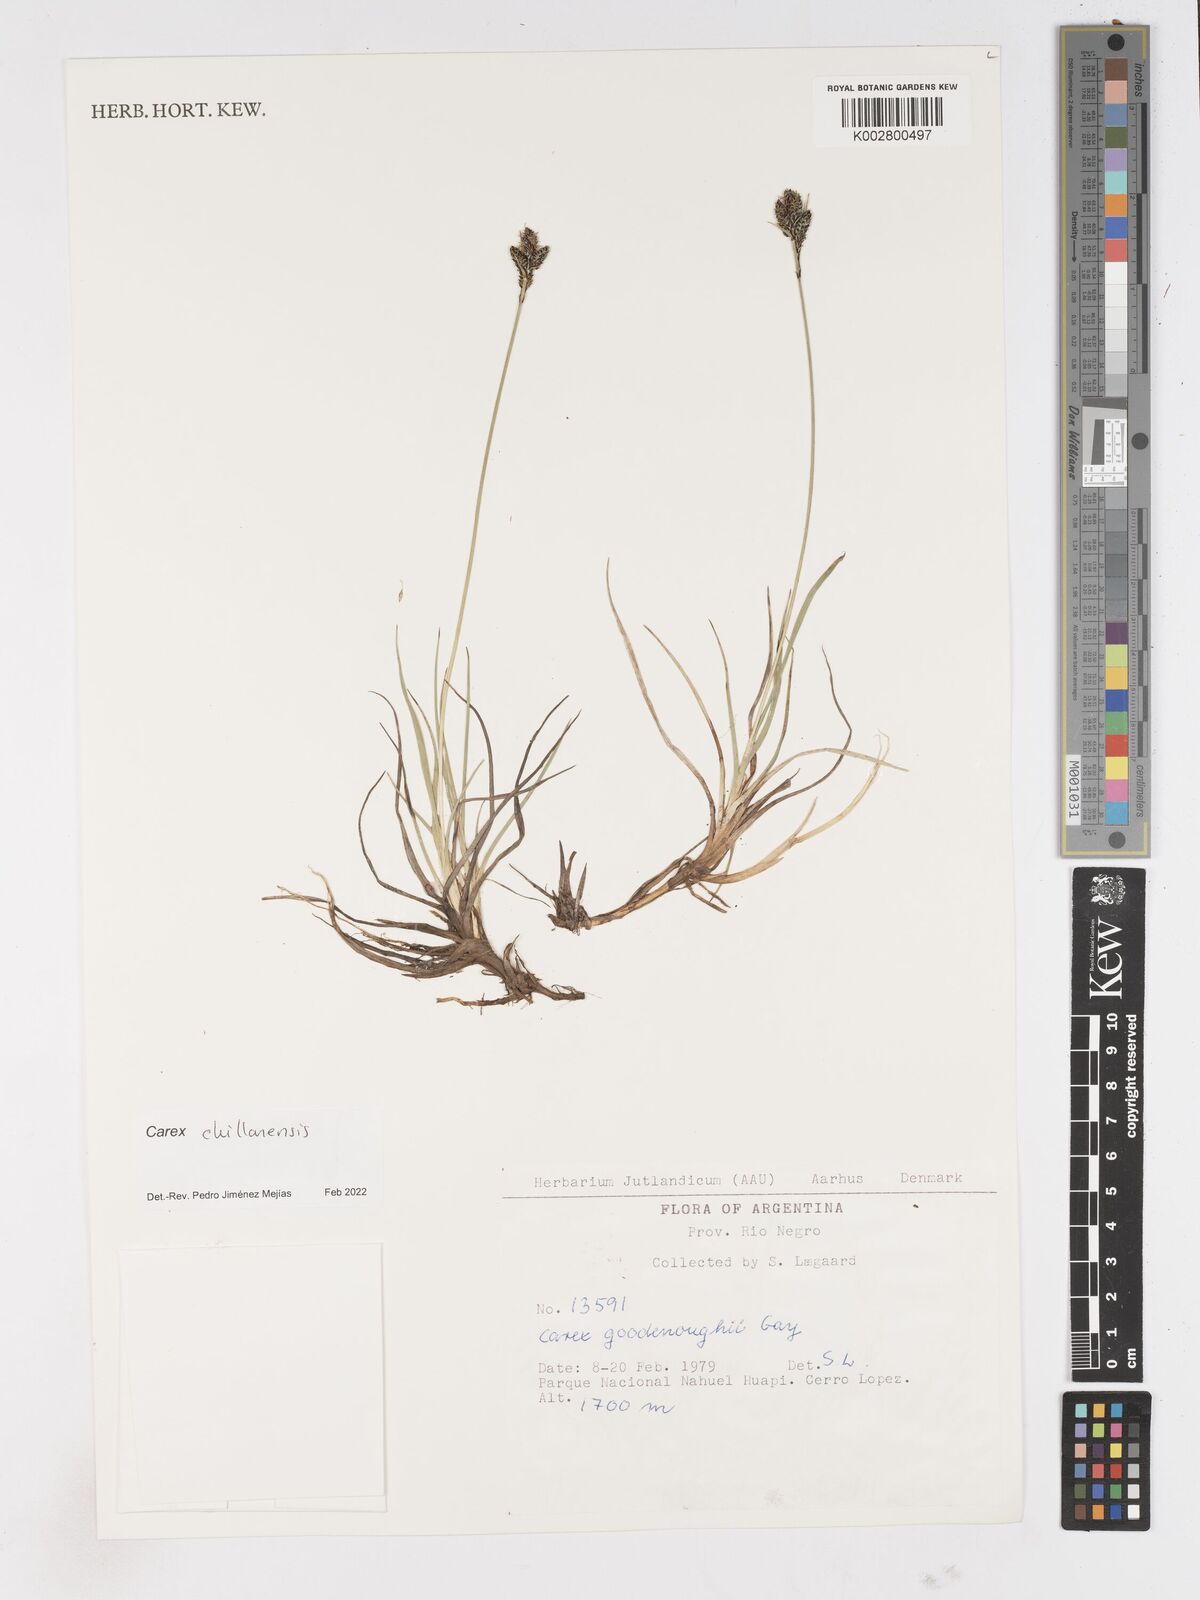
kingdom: Plantae
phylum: Tracheophyta
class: Liliopsida
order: Poales
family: Cyperaceae
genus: Carex
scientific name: Carex nigra
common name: Common sedge
